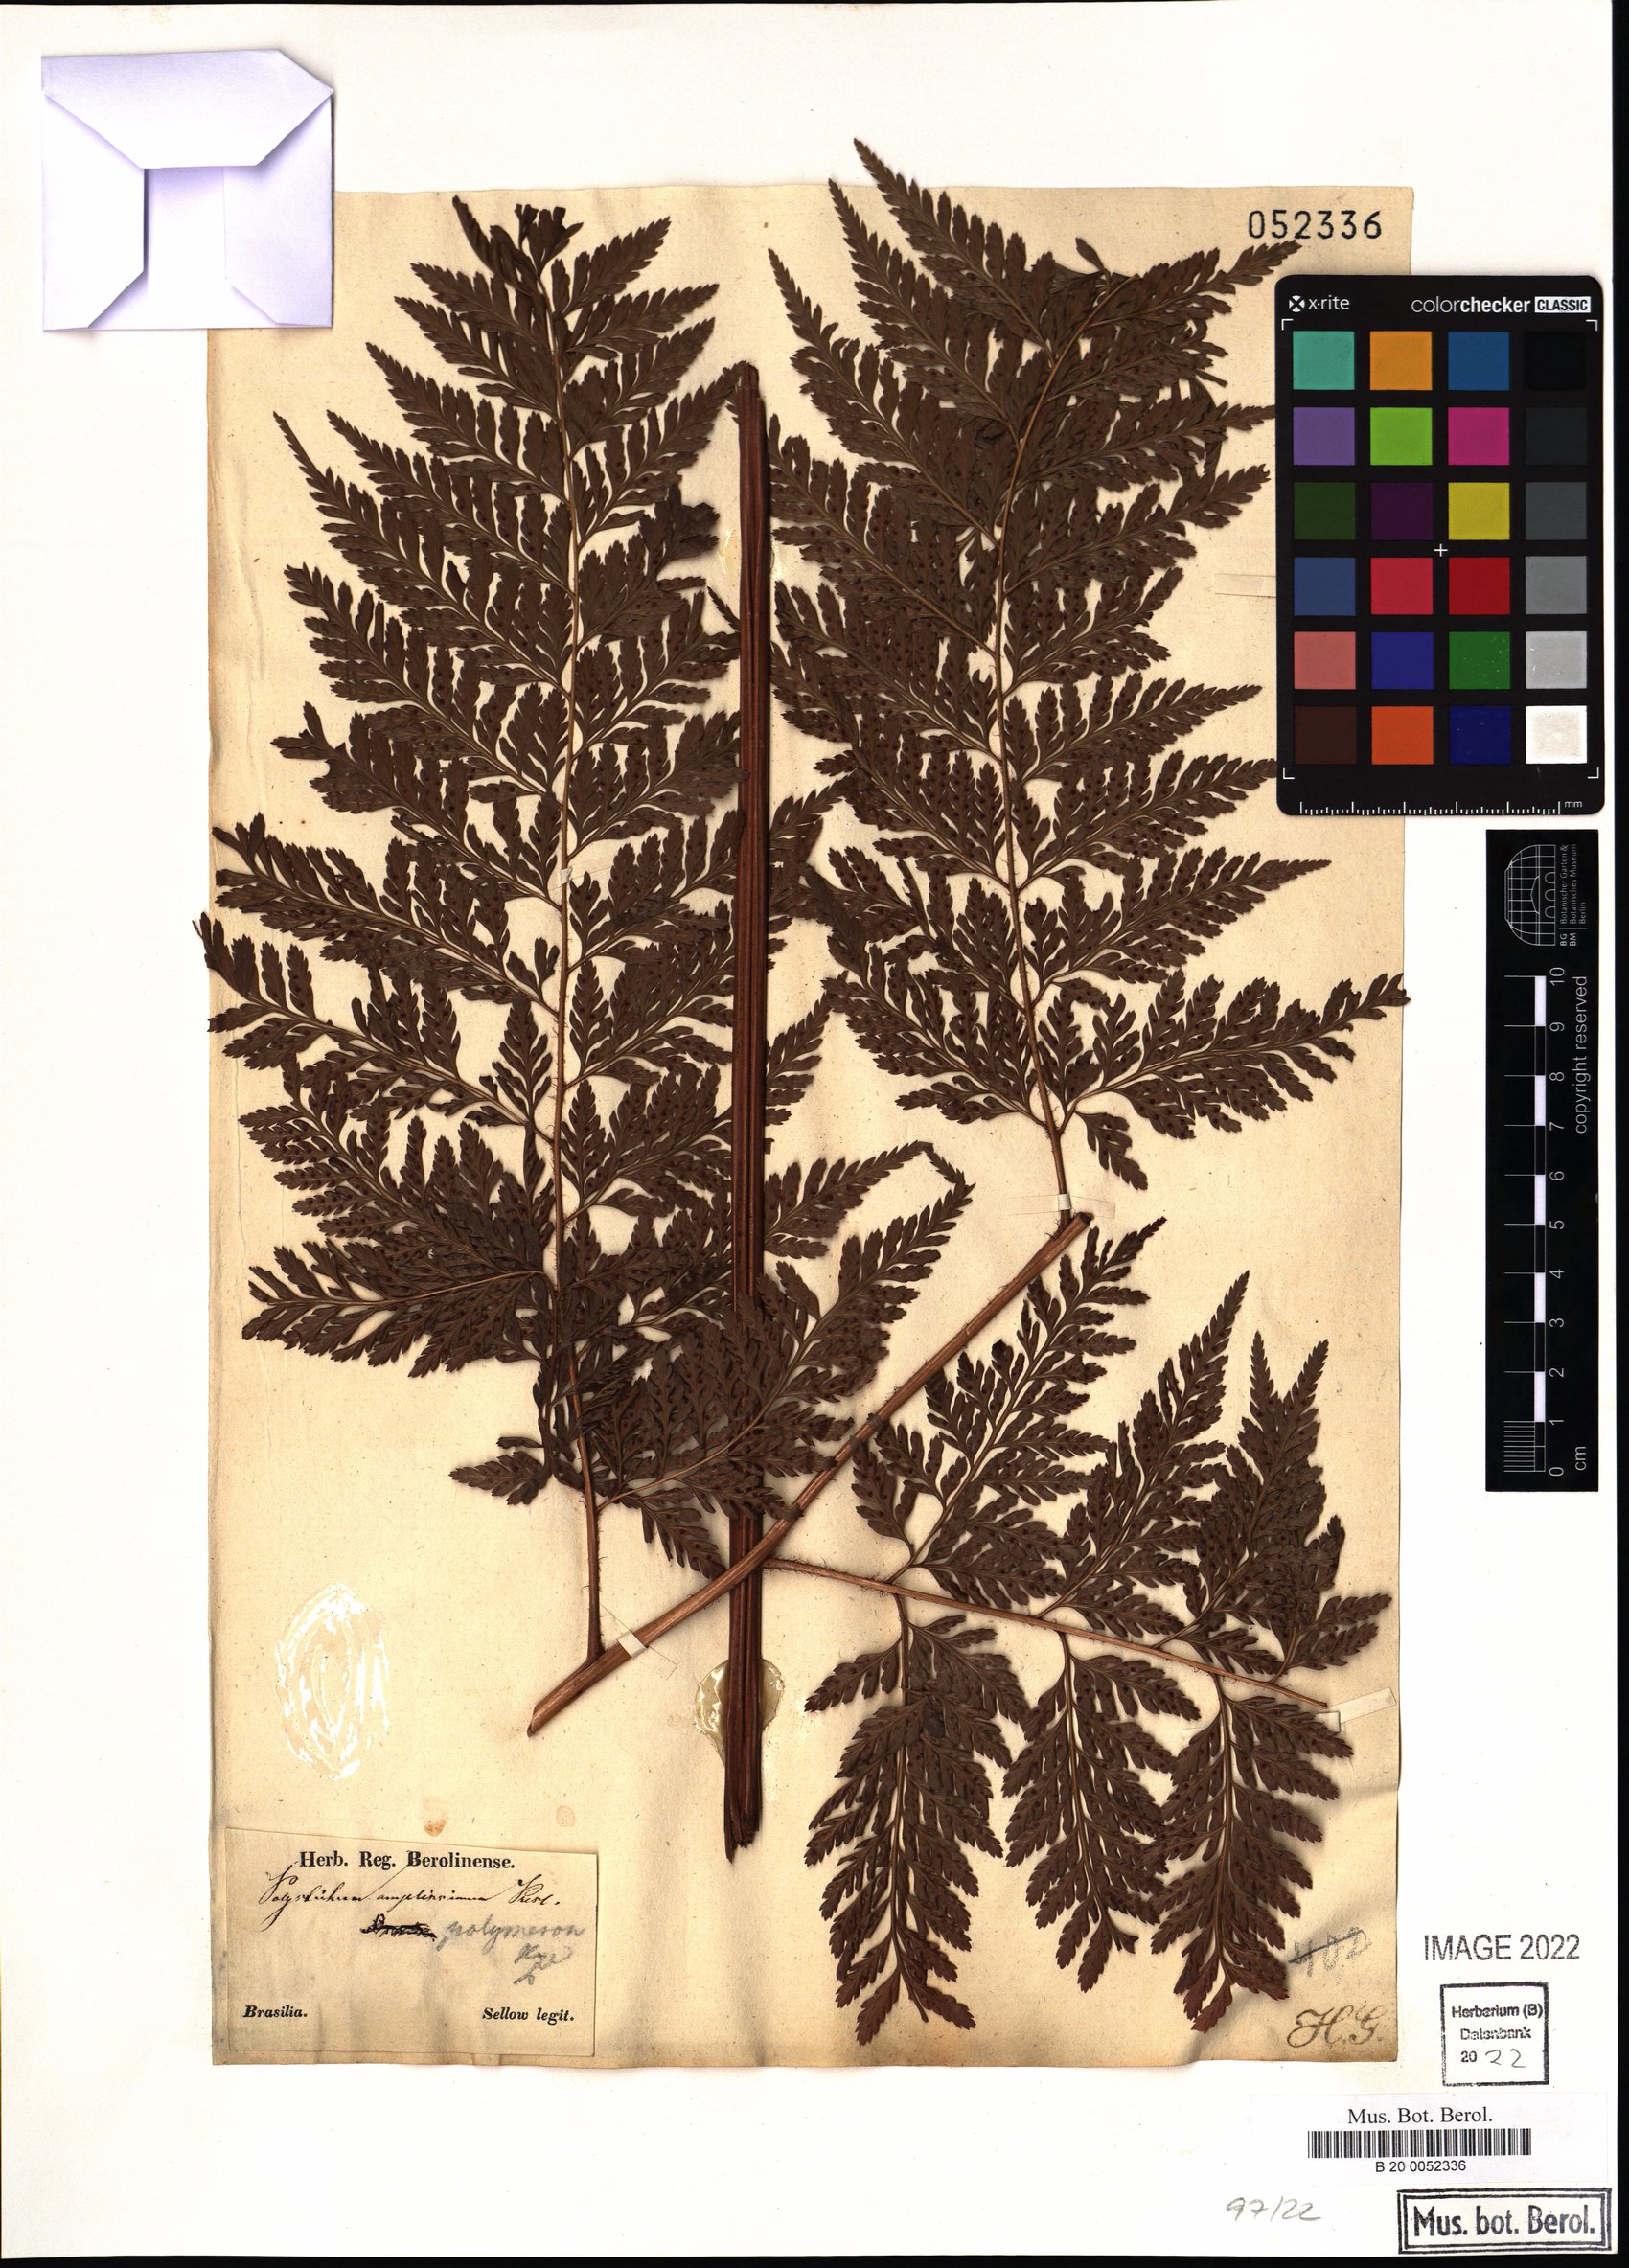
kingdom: Plantae
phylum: Tracheophyta
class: Polypodiopsida
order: Polypodiales
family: Dryopteridaceae
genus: Lastreopsis
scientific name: Lastreopsis amplissima
